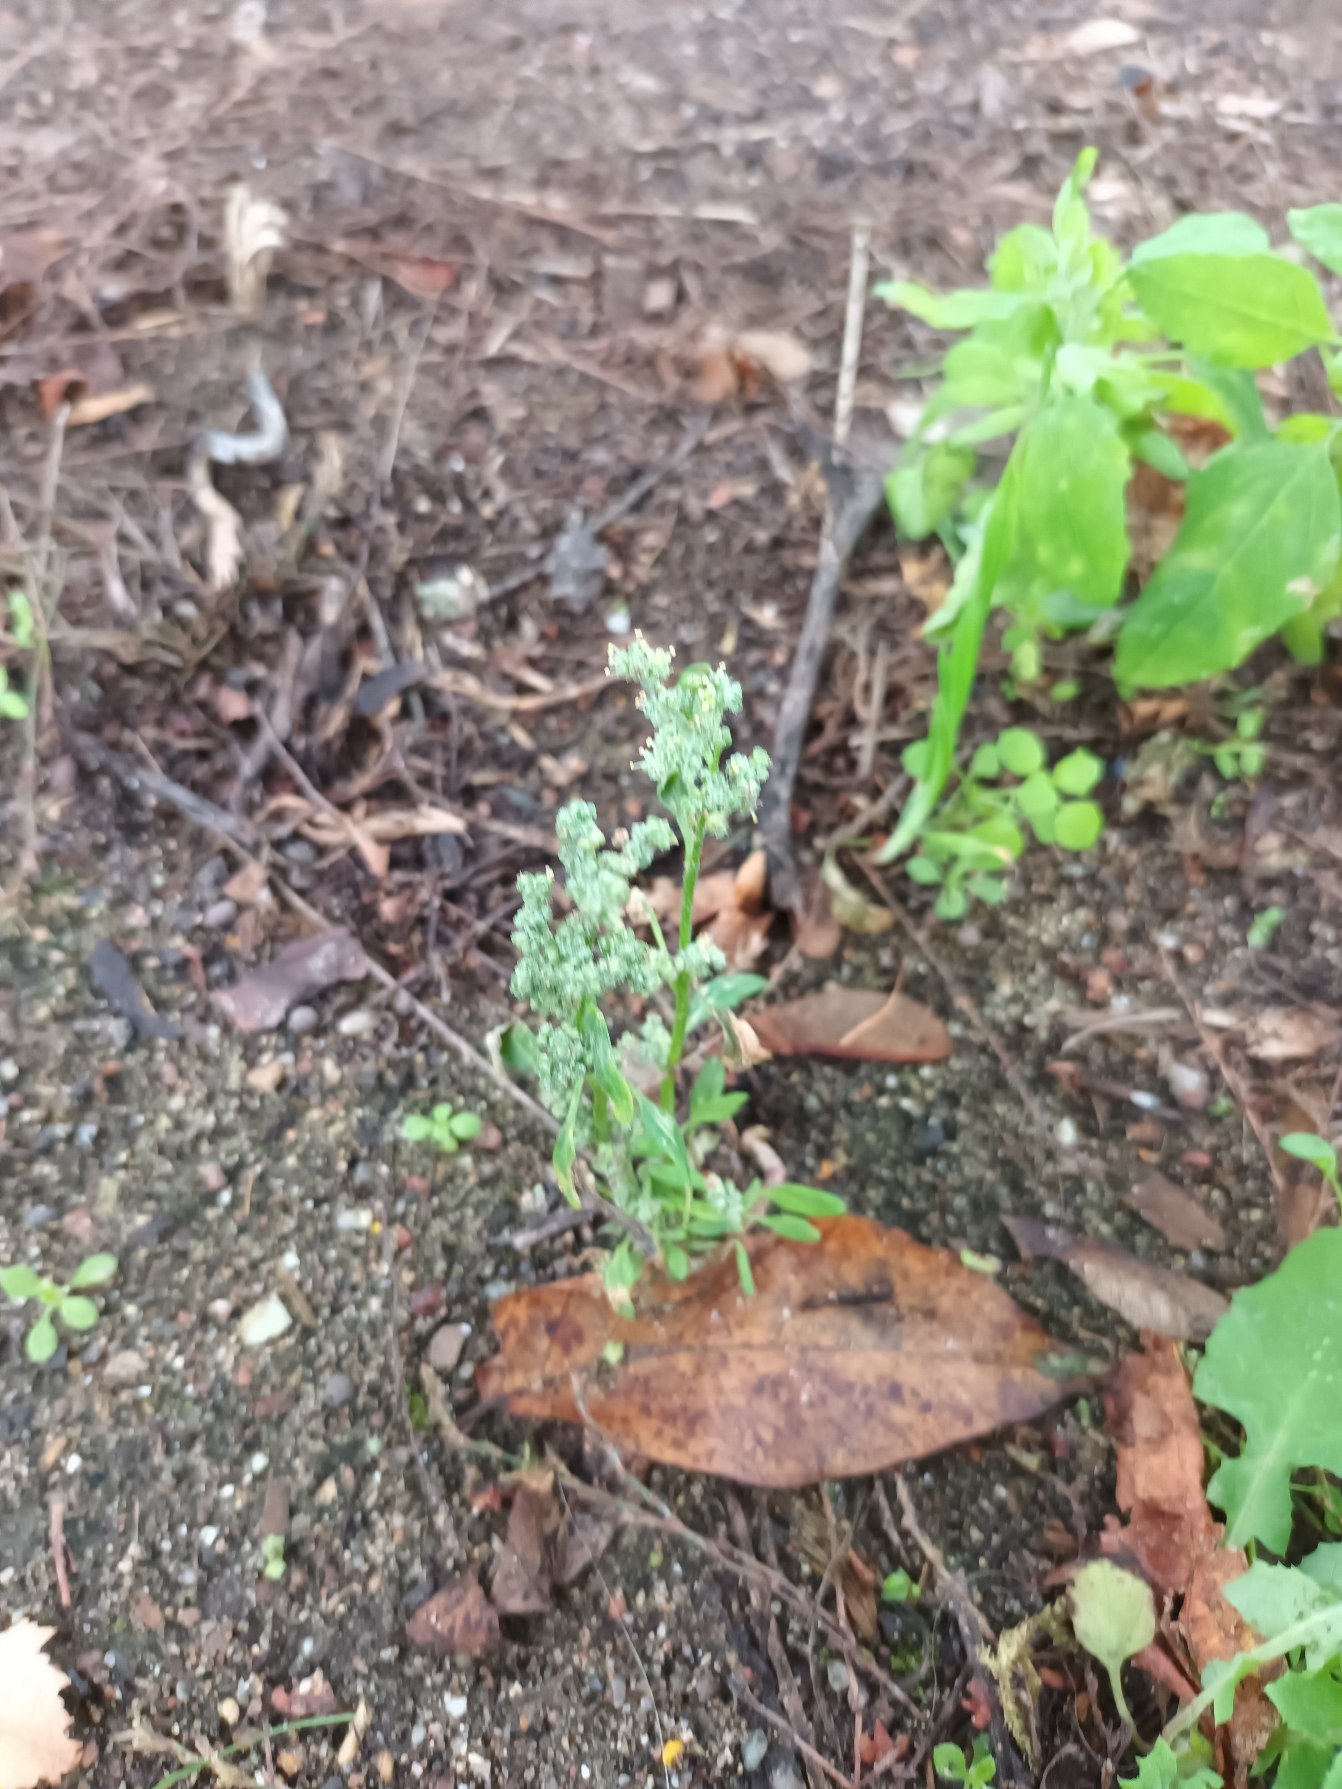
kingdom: Plantae
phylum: Tracheophyta
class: Magnoliopsida
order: Caryophyllales
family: Amaranthaceae
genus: Chenopodium
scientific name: Chenopodium album
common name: Hvidmelet gåsefod
